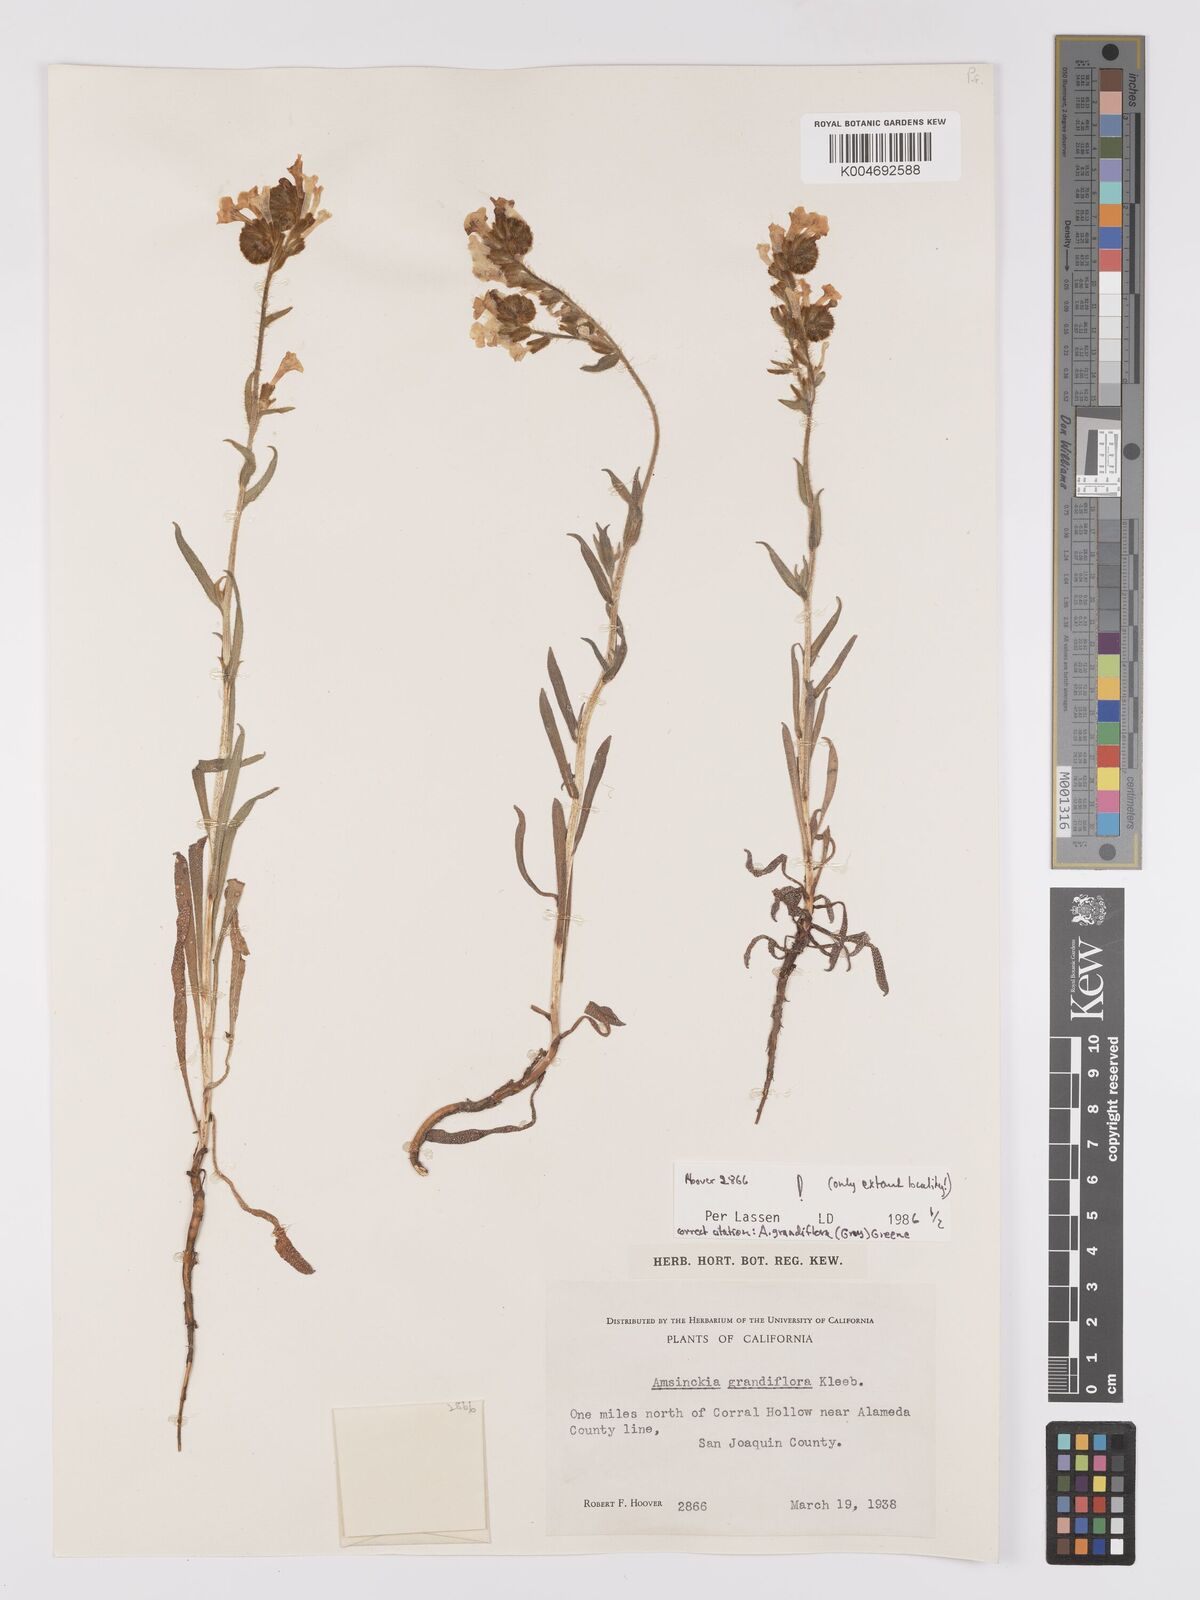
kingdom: Plantae
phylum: Tracheophyta
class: Magnoliopsida
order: Boraginales
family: Boraginaceae
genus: Amsinckia
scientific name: Amsinckia grandiflora
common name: Large-flower fiddleneck
